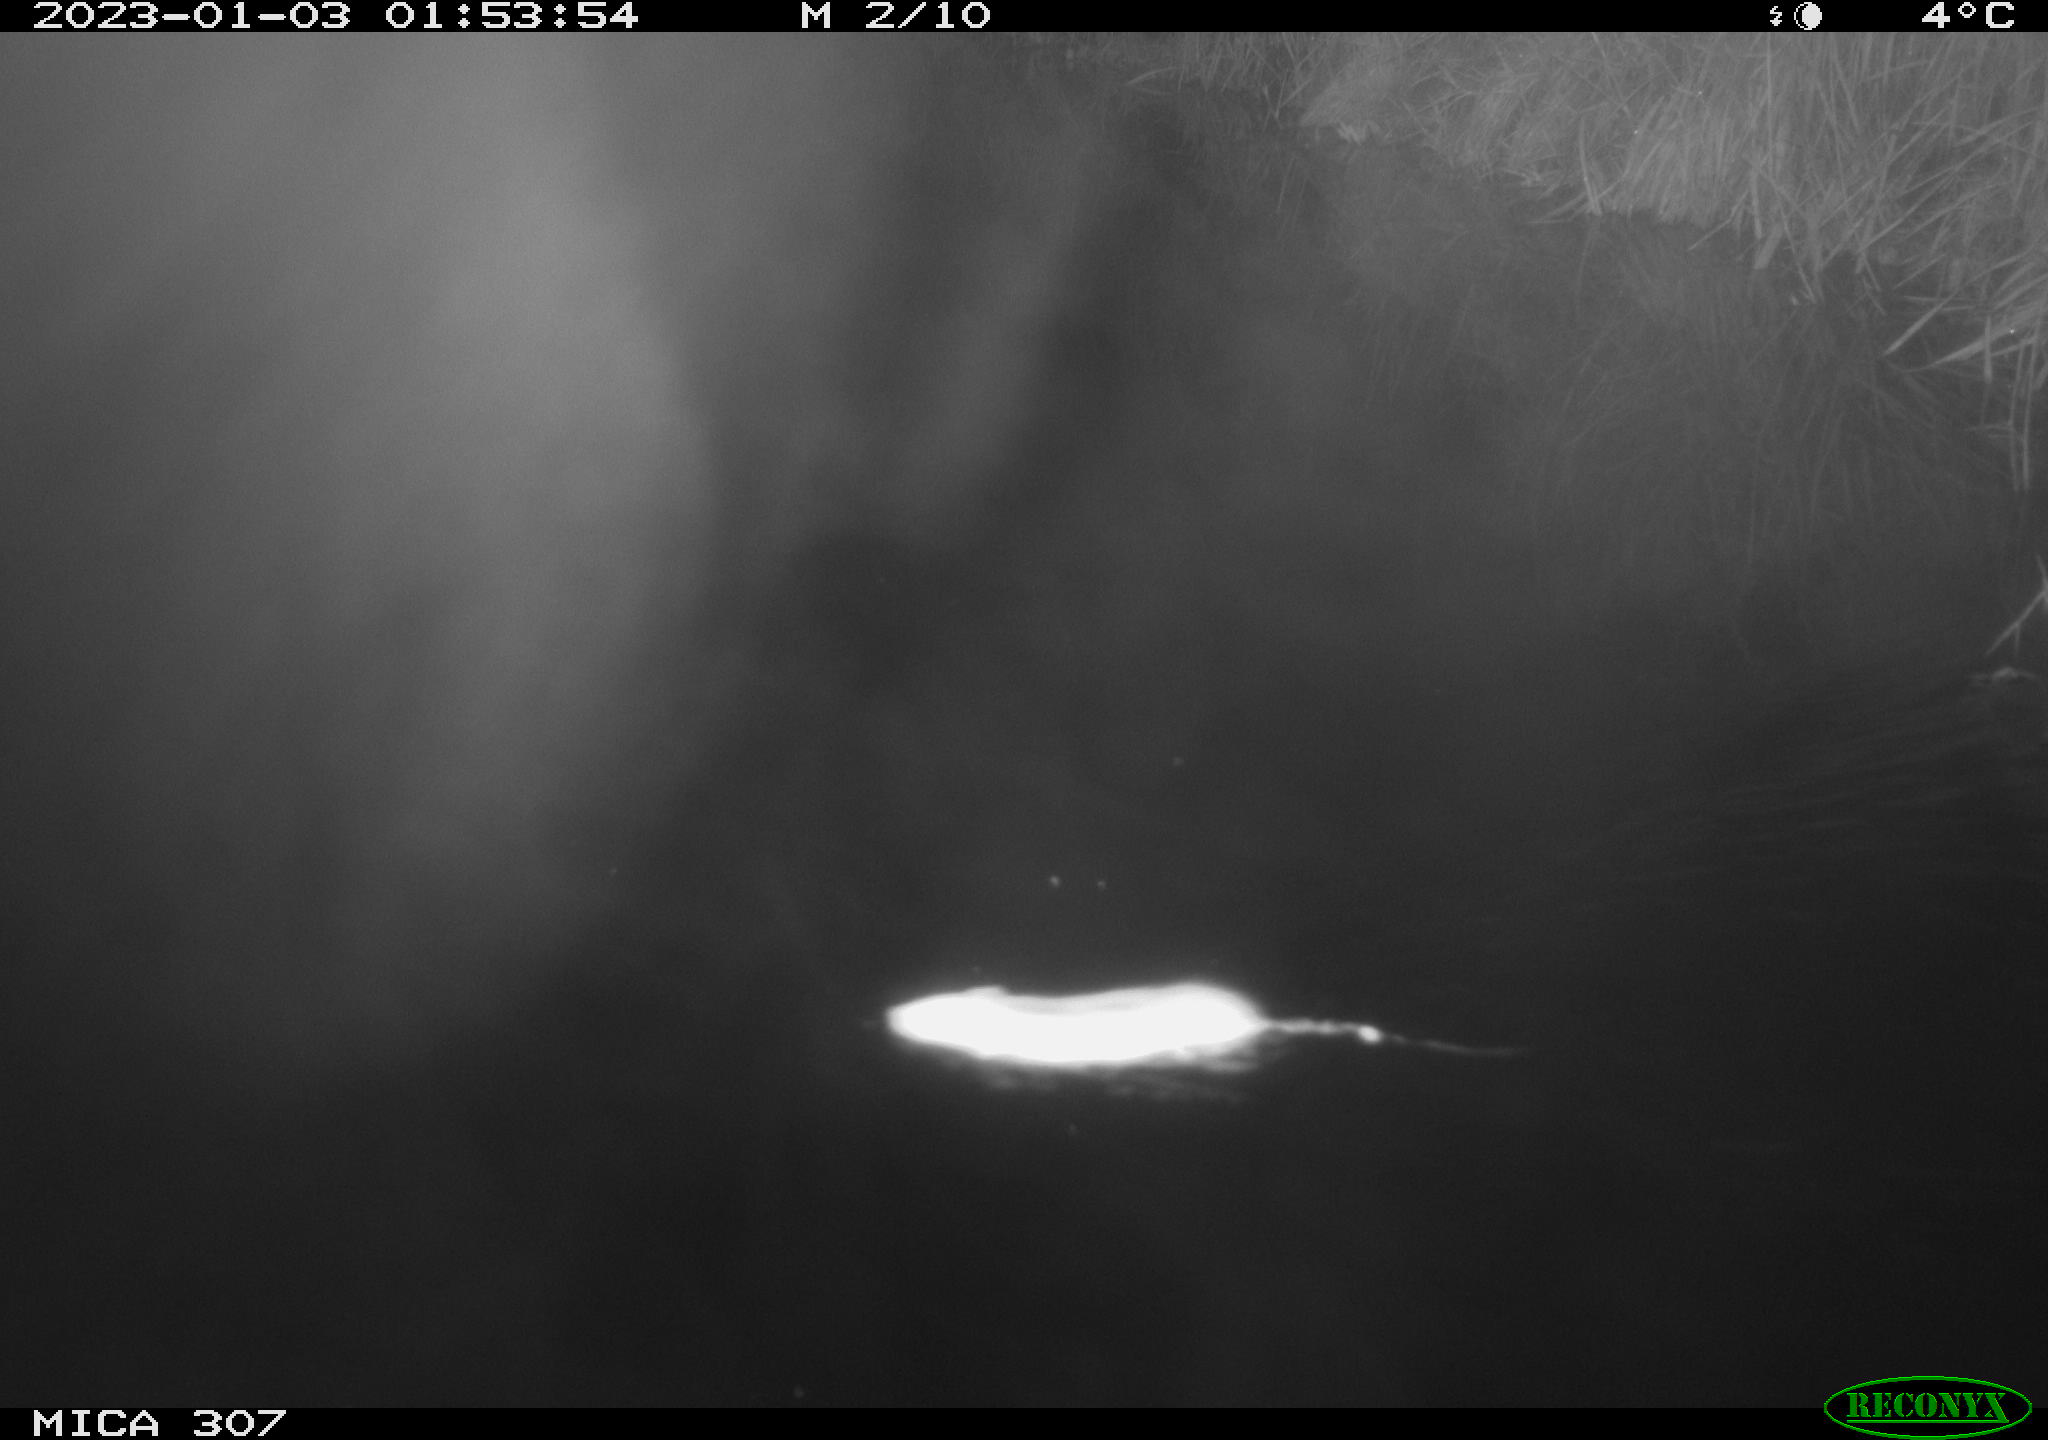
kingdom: Animalia
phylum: Chordata
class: Mammalia
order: Rodentia
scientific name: Rodentia
